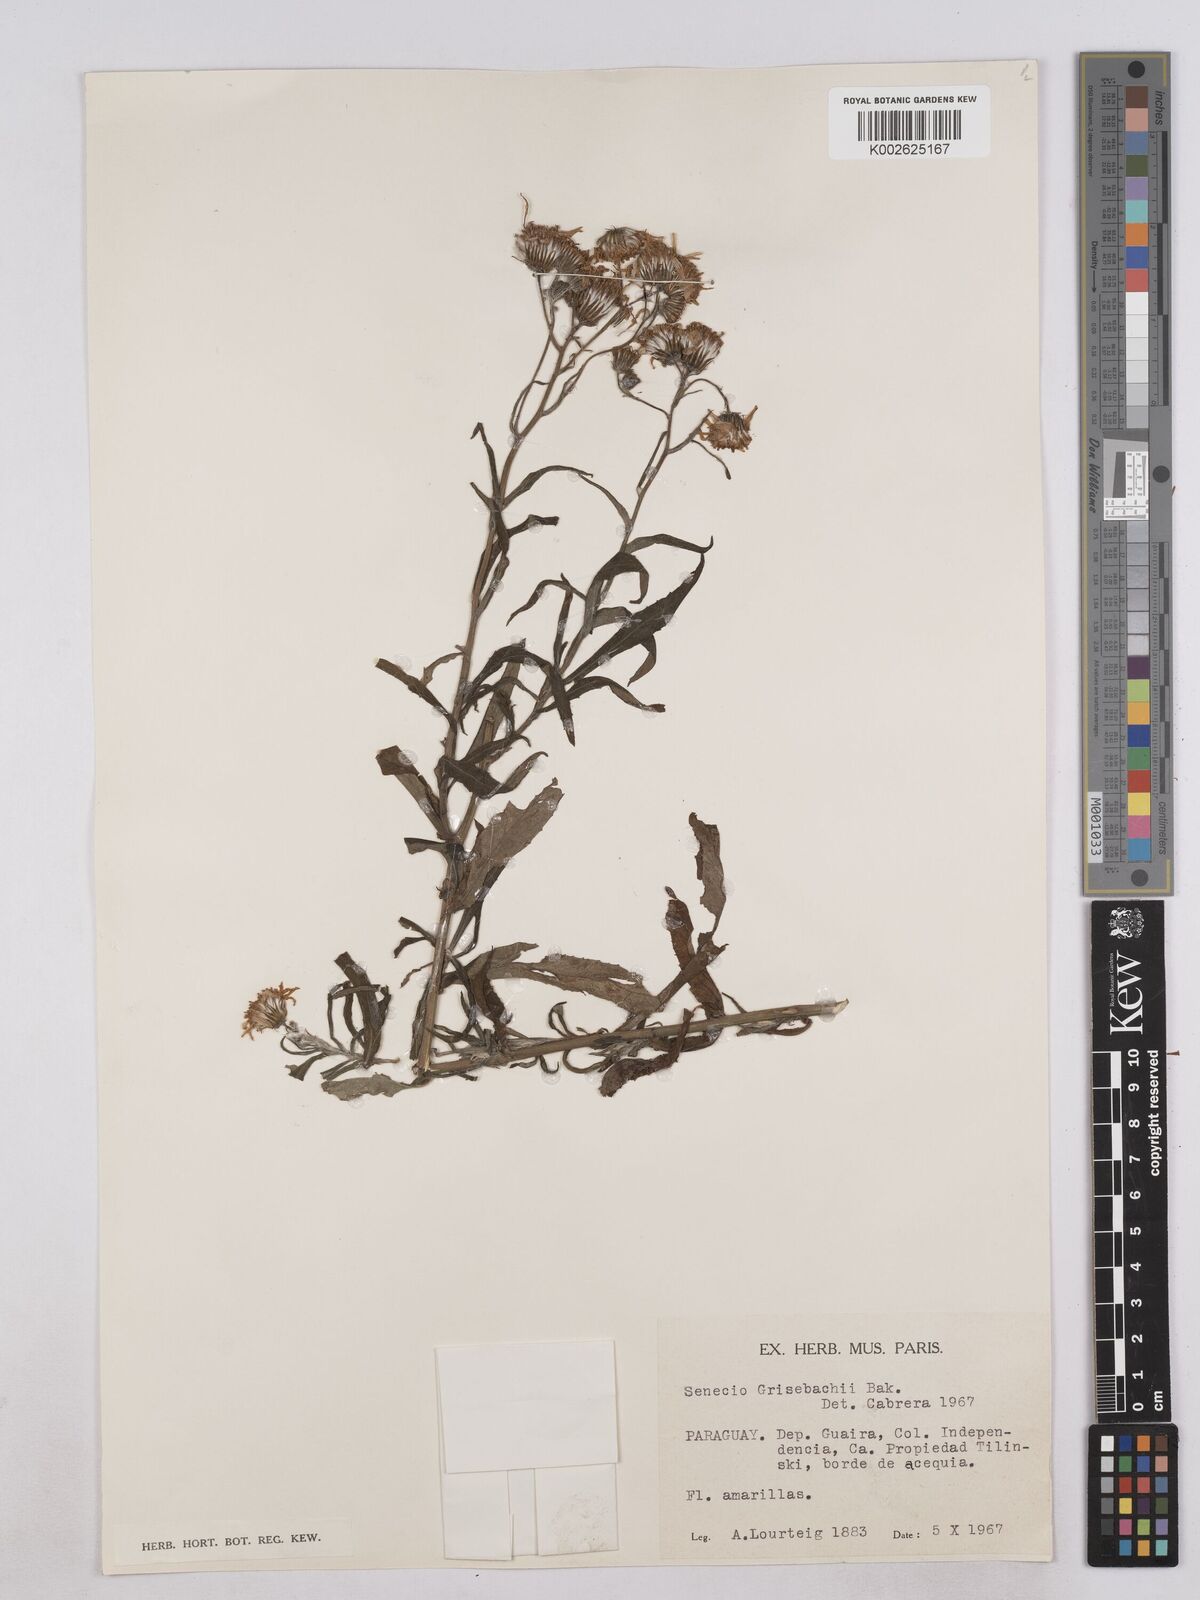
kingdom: Plantae
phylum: Tracheophyta
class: Magnoliopsida
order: Asterales
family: Asteraceae
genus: Senecio
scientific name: Senecio grisebachii
